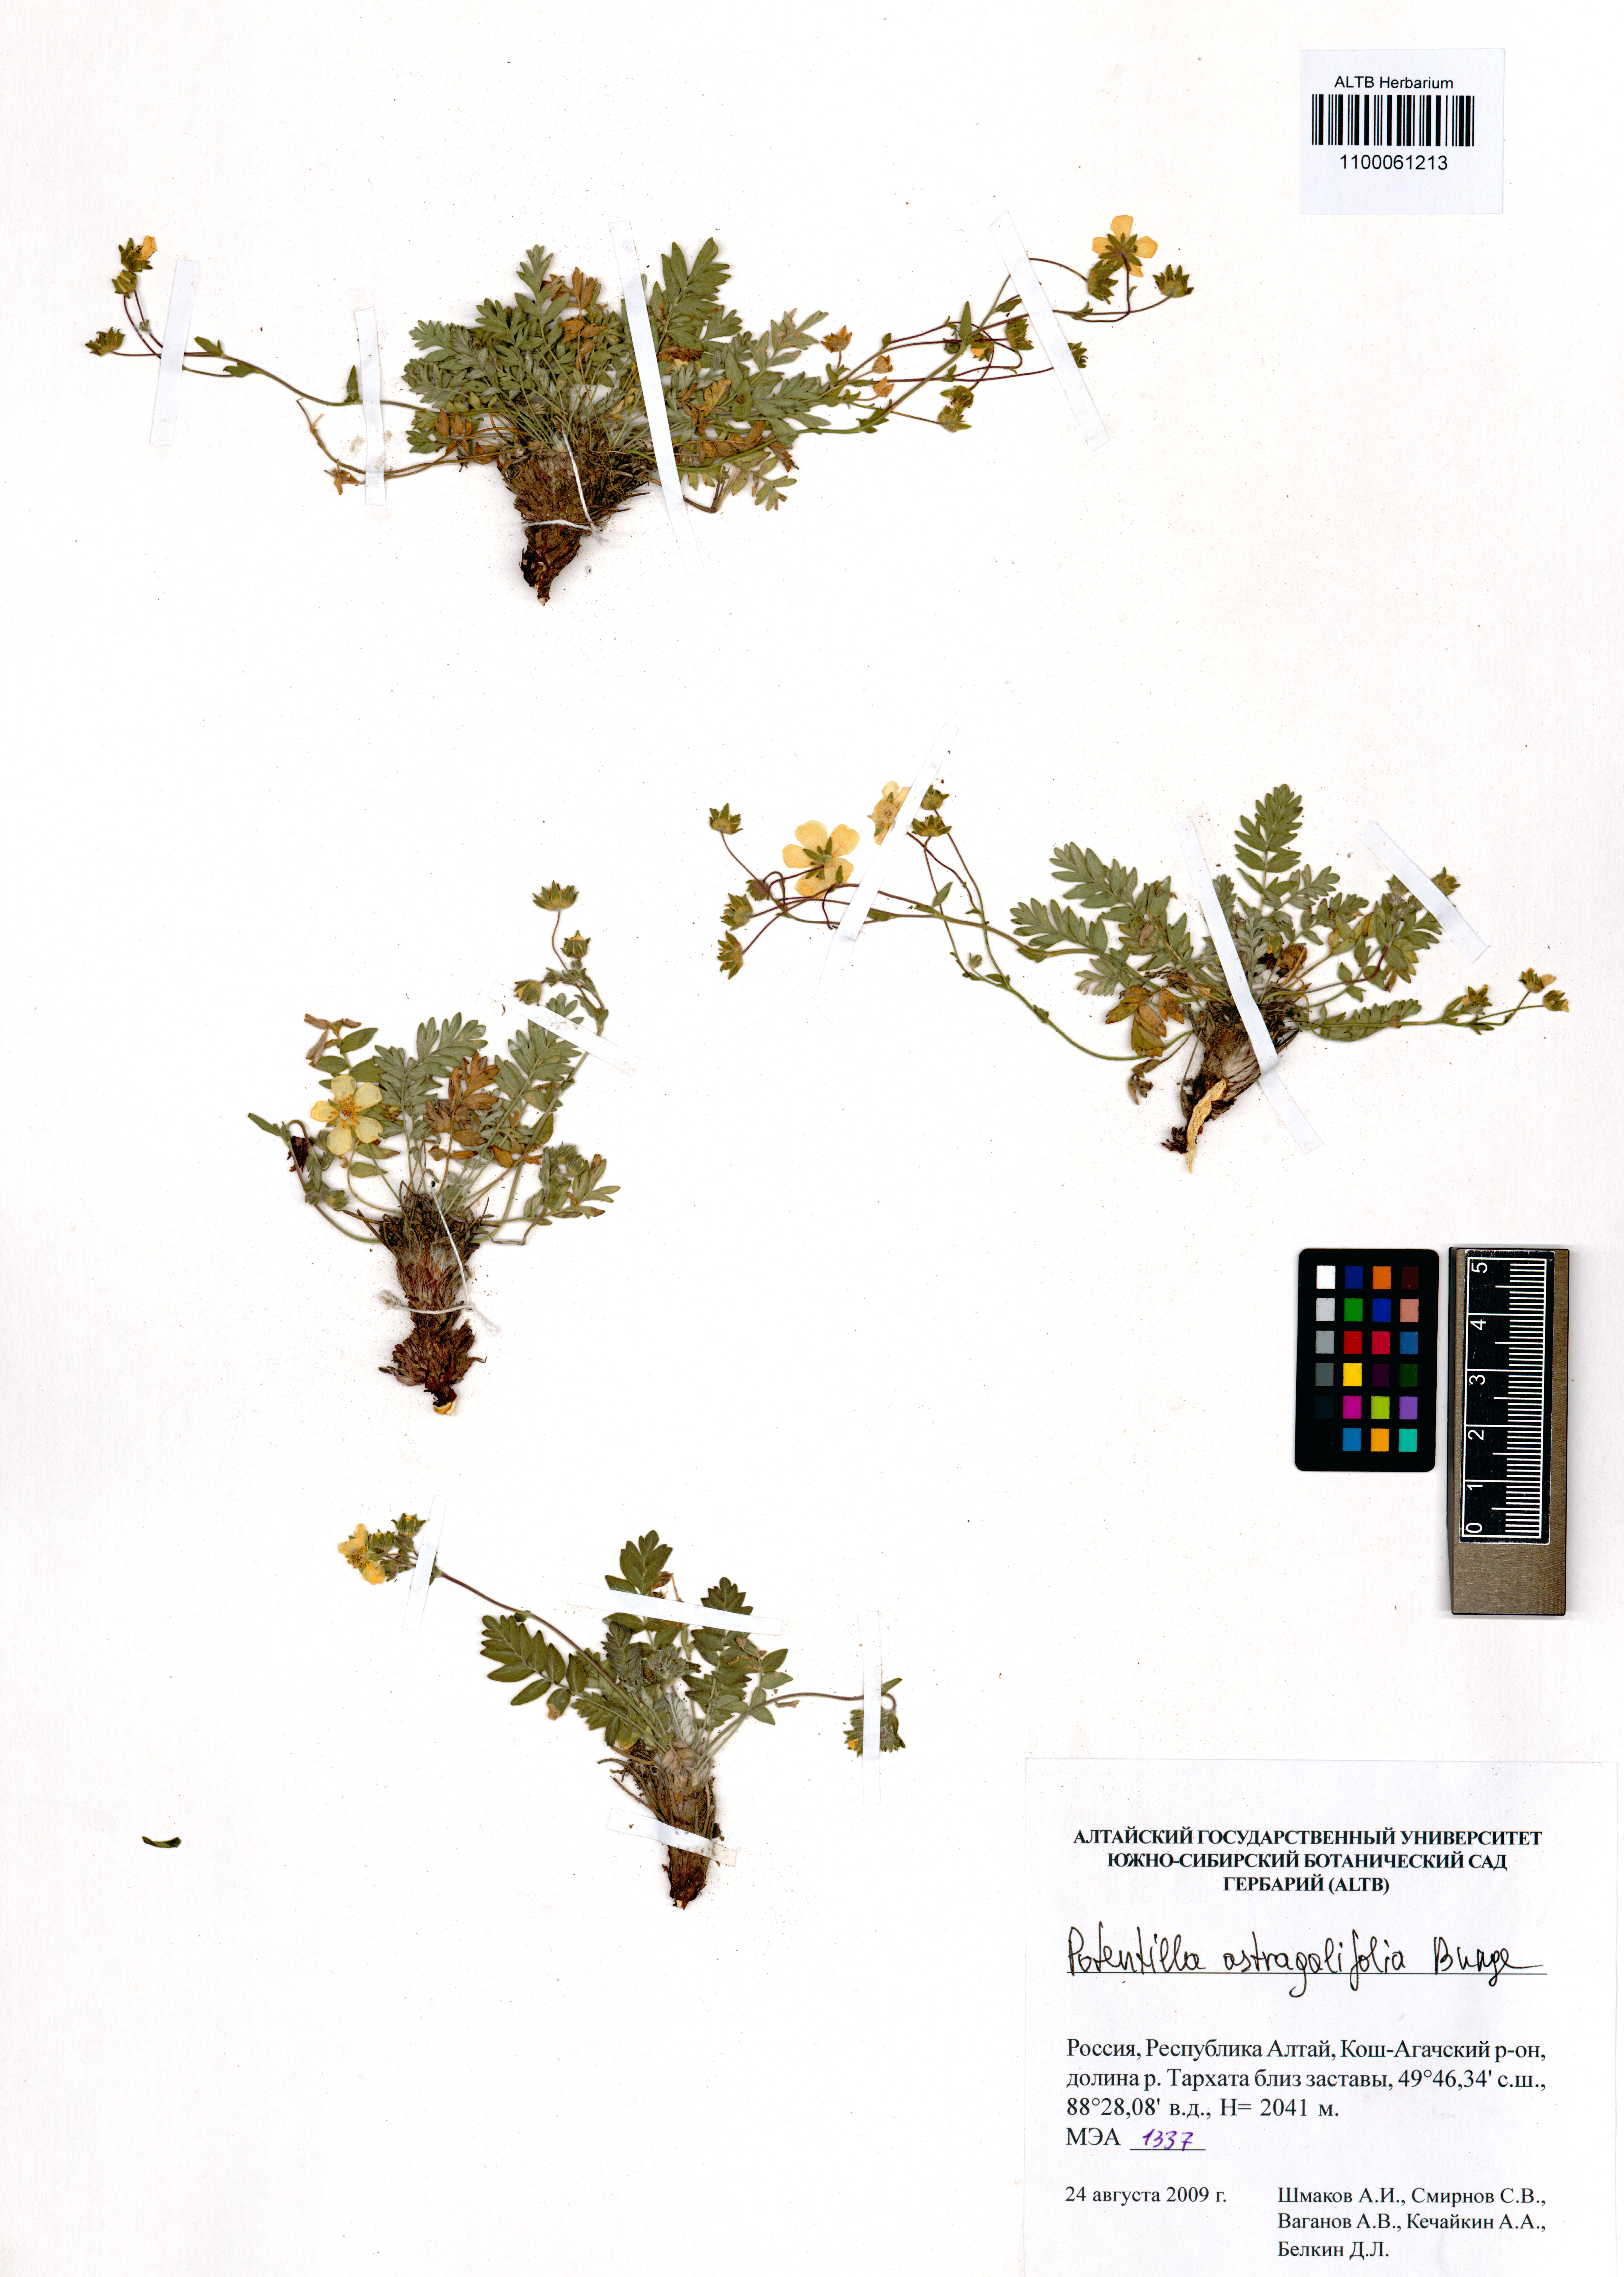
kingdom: Plantae
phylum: Tracheophyta
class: Magnoliopsida
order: Rosales
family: Rosaceae
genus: Potentilla
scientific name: Potentilla astragalifolia
